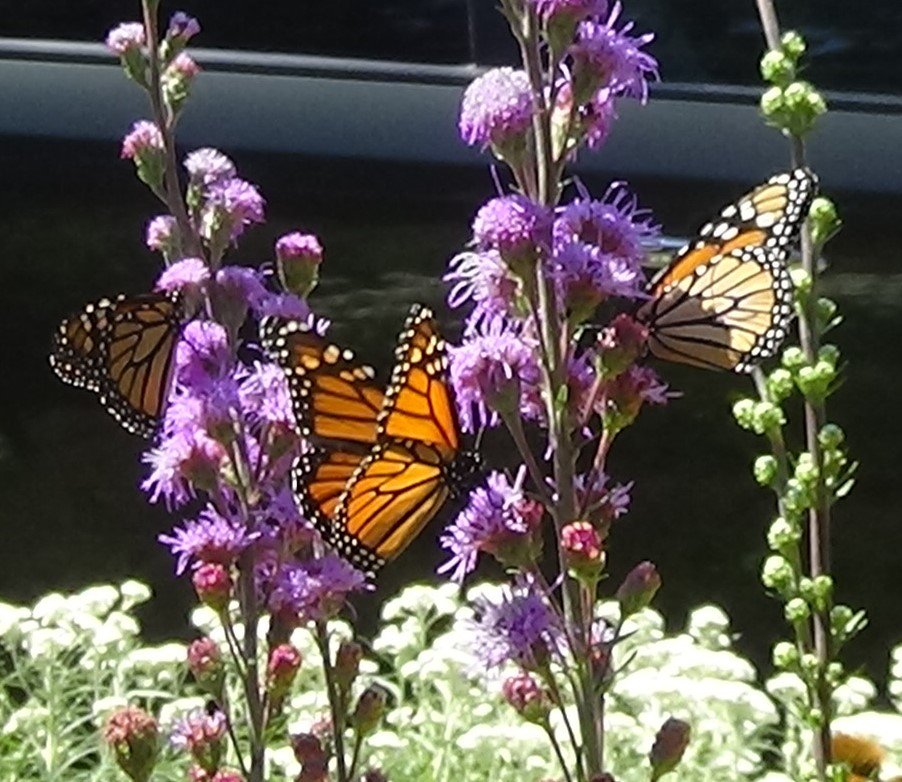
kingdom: Animalia
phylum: Arthropoda
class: Insecta
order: Lepidoptera
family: Nymphalidae
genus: Danaus
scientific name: Danaus plexippus
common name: Monarch
